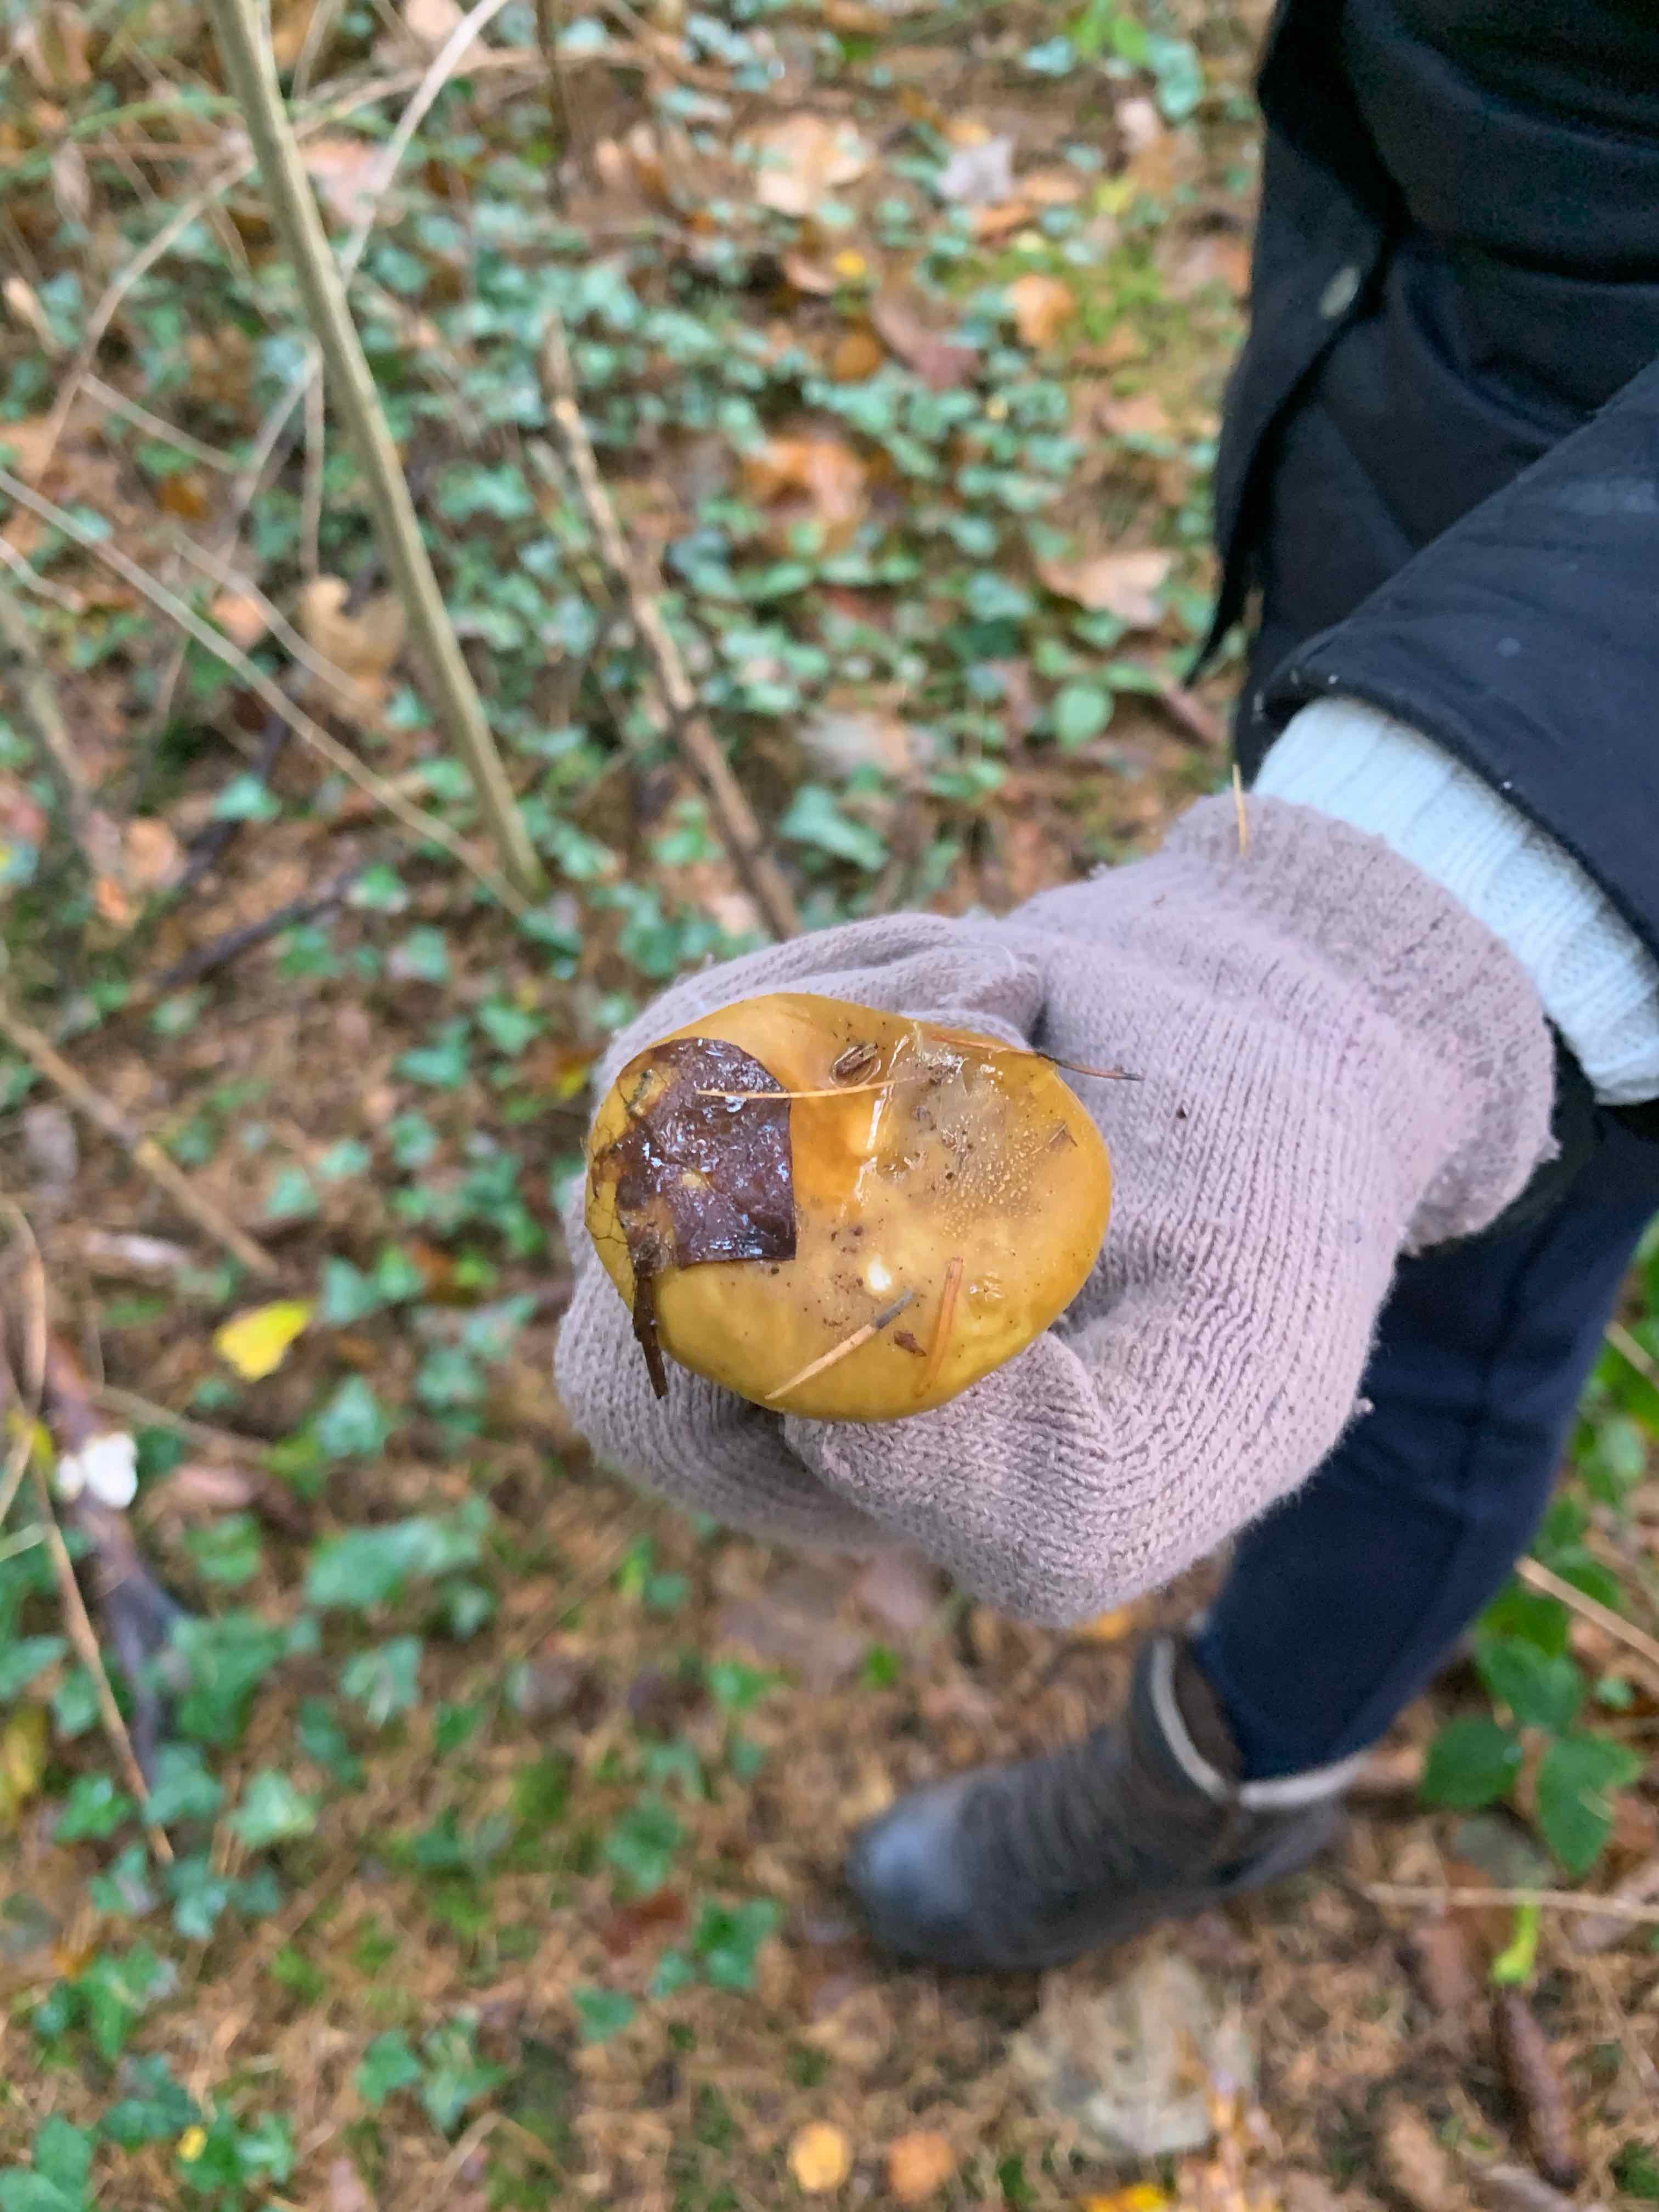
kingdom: Fungi
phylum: Basidiomycota
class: Agaricomycetes
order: Russulales
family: Russulaceae
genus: Russula
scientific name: Russula ochroleuca
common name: okkergul skørhat
